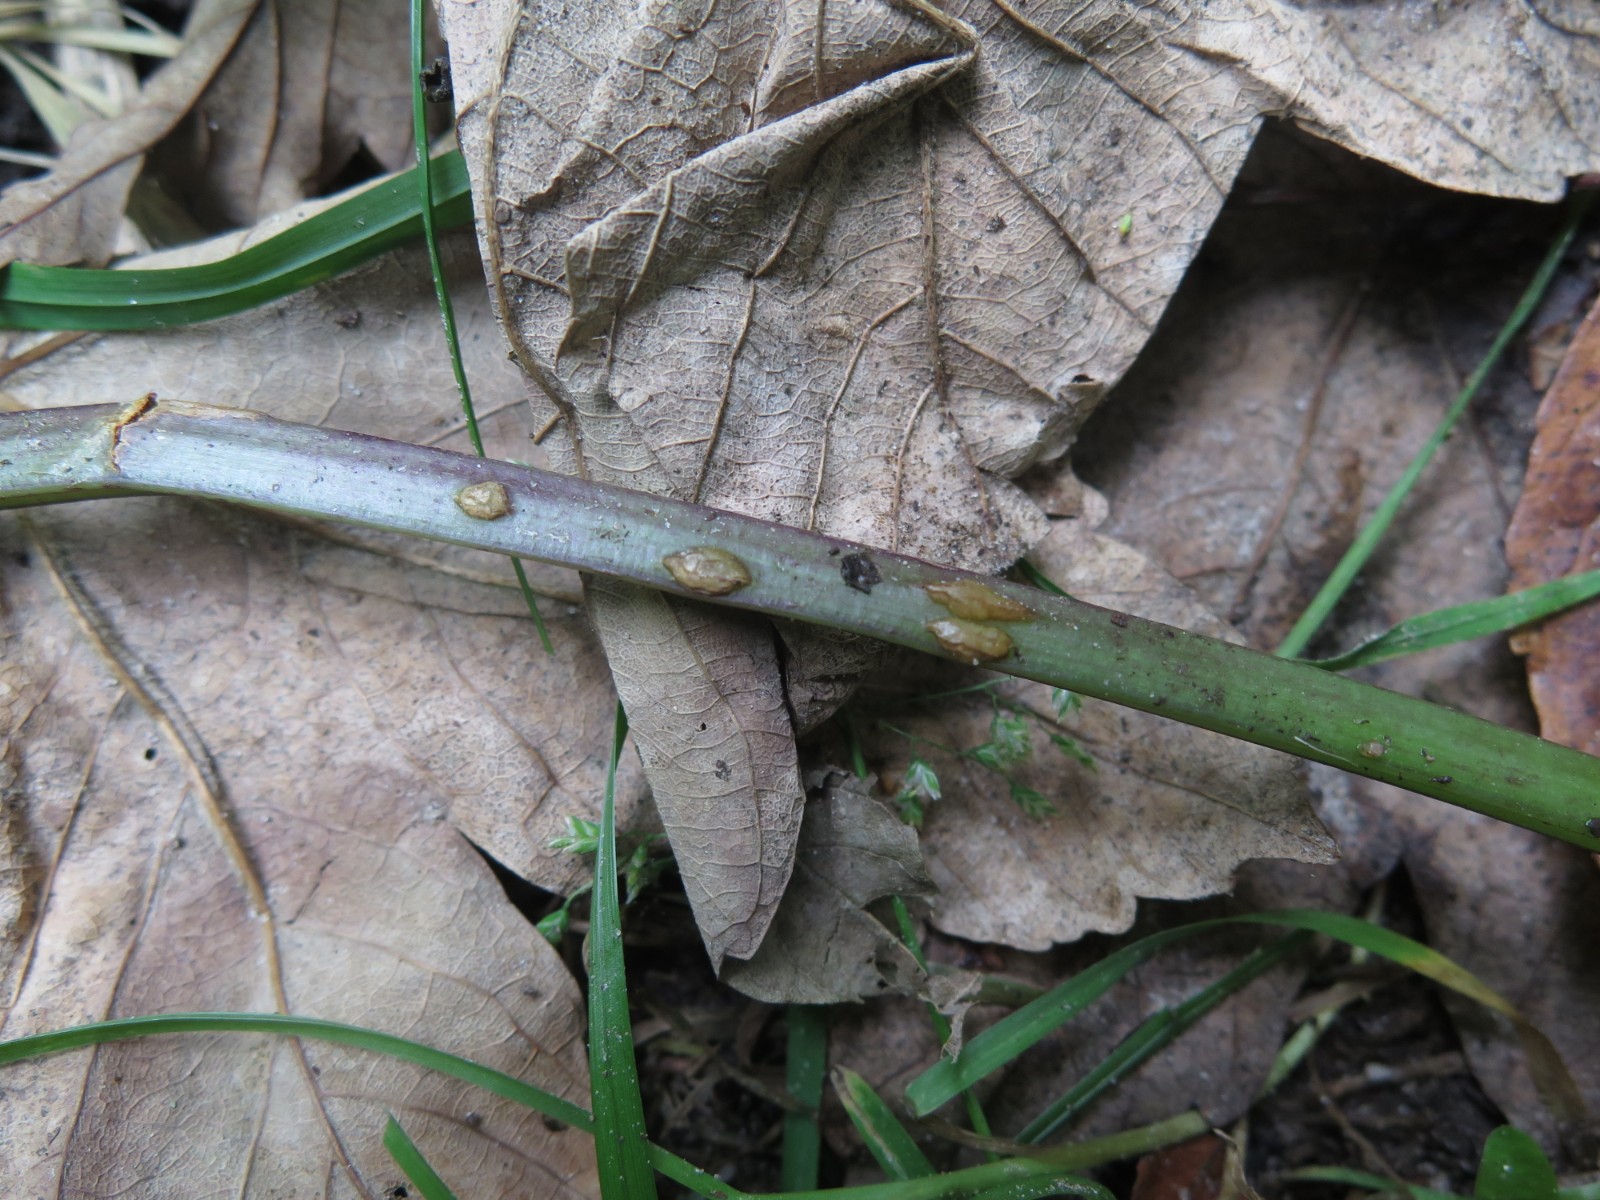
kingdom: Fungi
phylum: Ascomycota
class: Taphrinomycetes
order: Taphrinales
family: Taphrinaceae
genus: Protomyces
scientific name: Protomyces macrosporus
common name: skvalderkål-vablesæk
